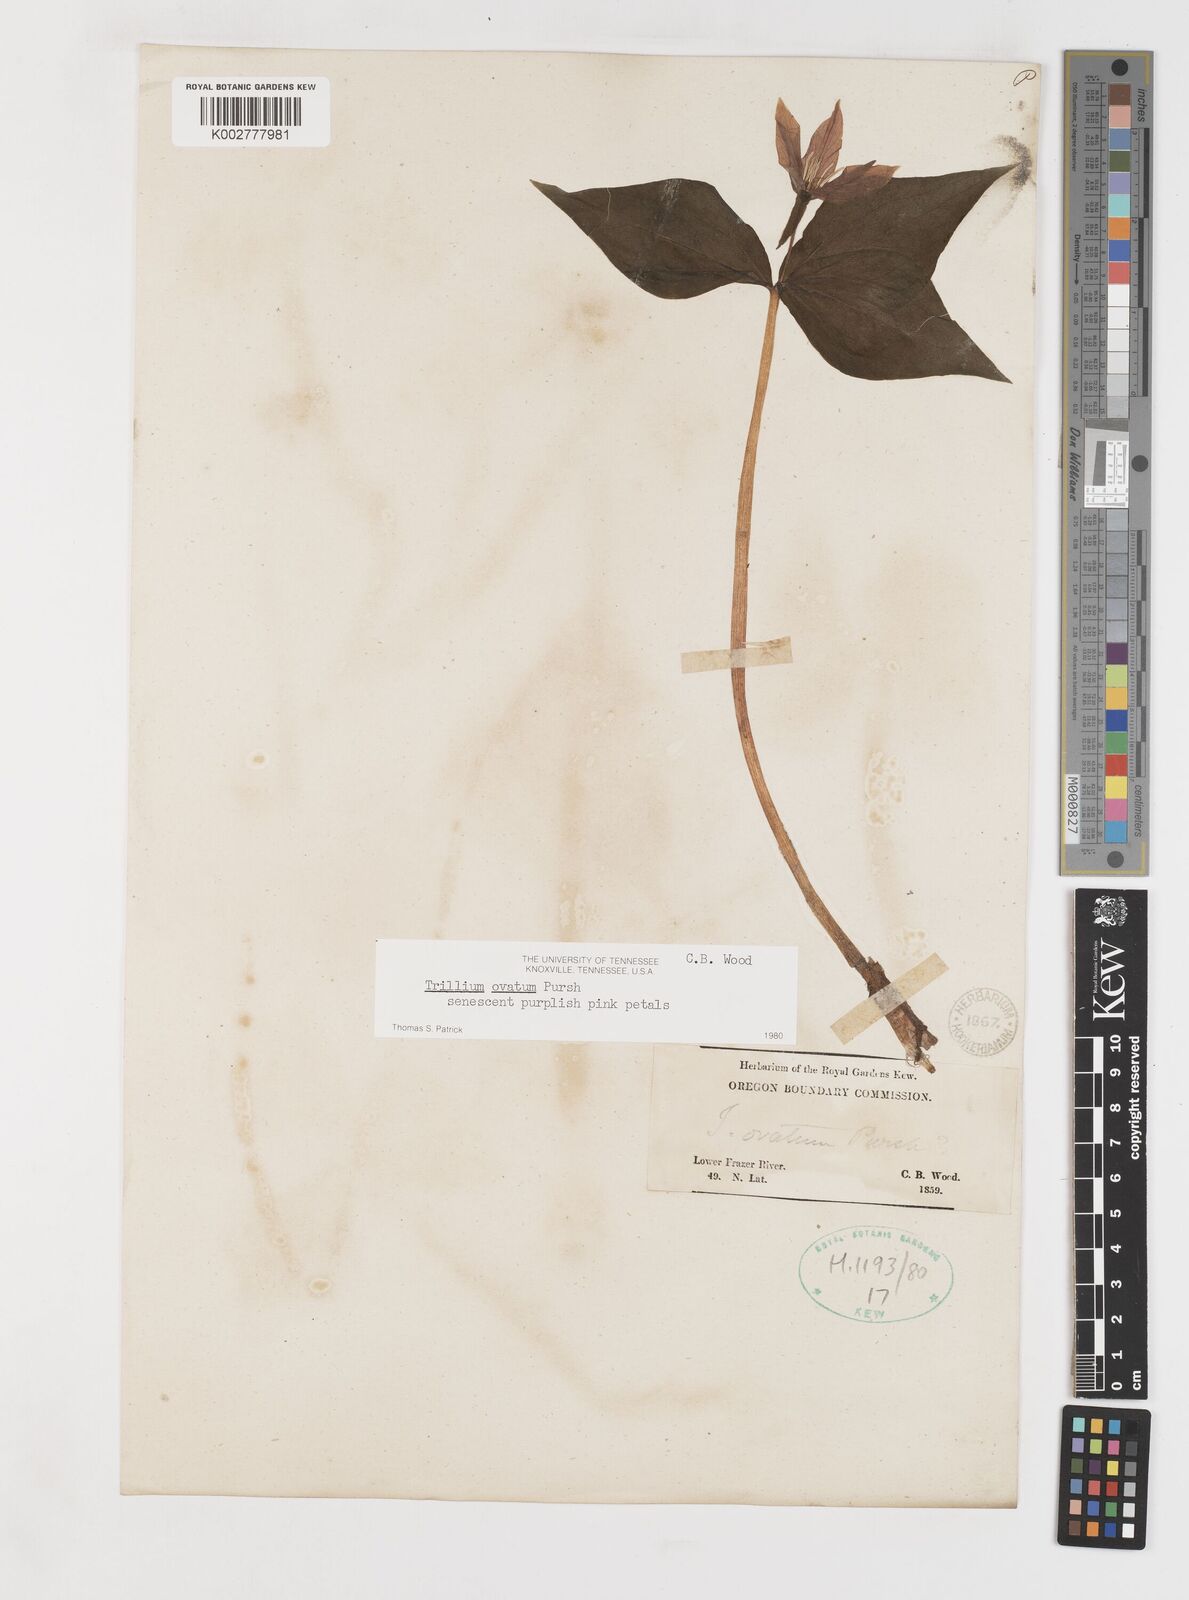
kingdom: Plantae
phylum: Tracheophyta
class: Liliopsida
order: Liliales
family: Melanthiaceae
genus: Trillium
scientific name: Trillium ovatum
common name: Pacific trillium
